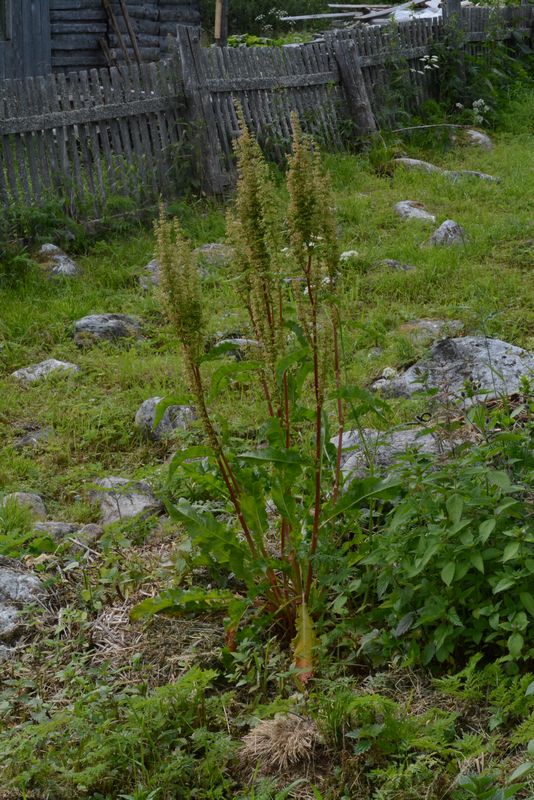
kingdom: Plantae
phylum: Tracheophyta
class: Magnoliopsida
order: Caryophyllales
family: Polygonaceae
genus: Rumex
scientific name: Rumex longifolius
